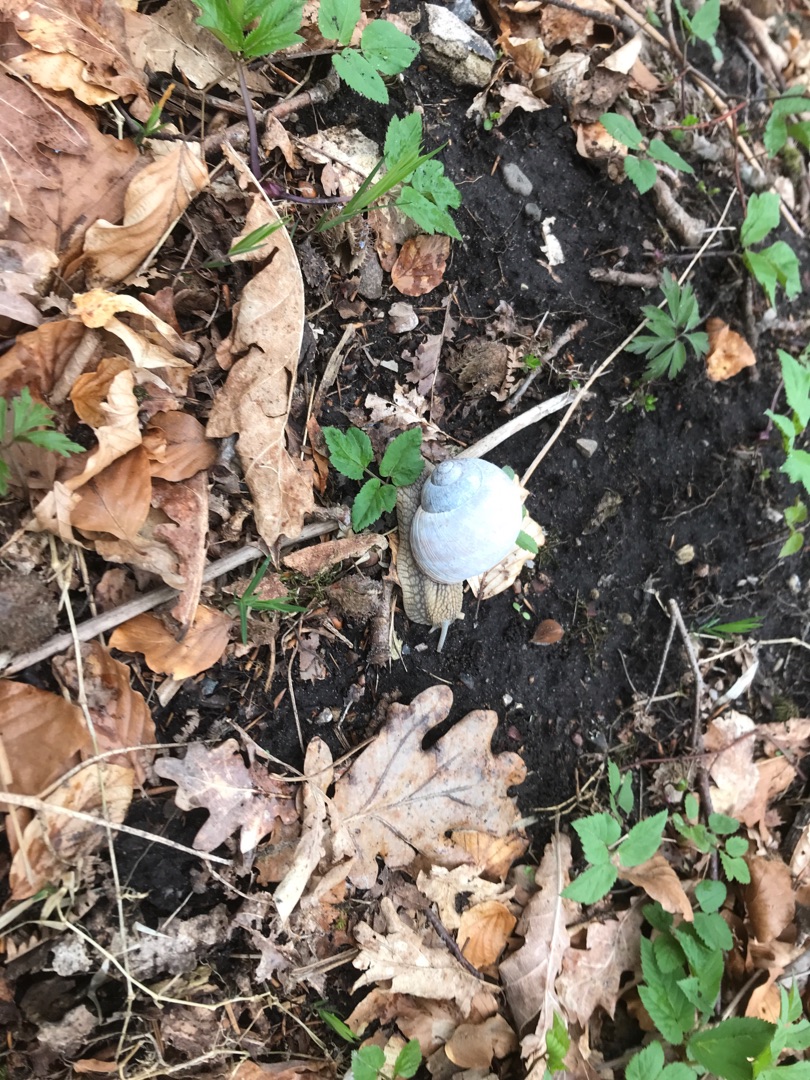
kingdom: Animalia
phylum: Mollusca
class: Gastropoda
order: Stylommatophora
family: Helicidae
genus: Helix
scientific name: Helix pomatia
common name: Vinbjergsnegl
